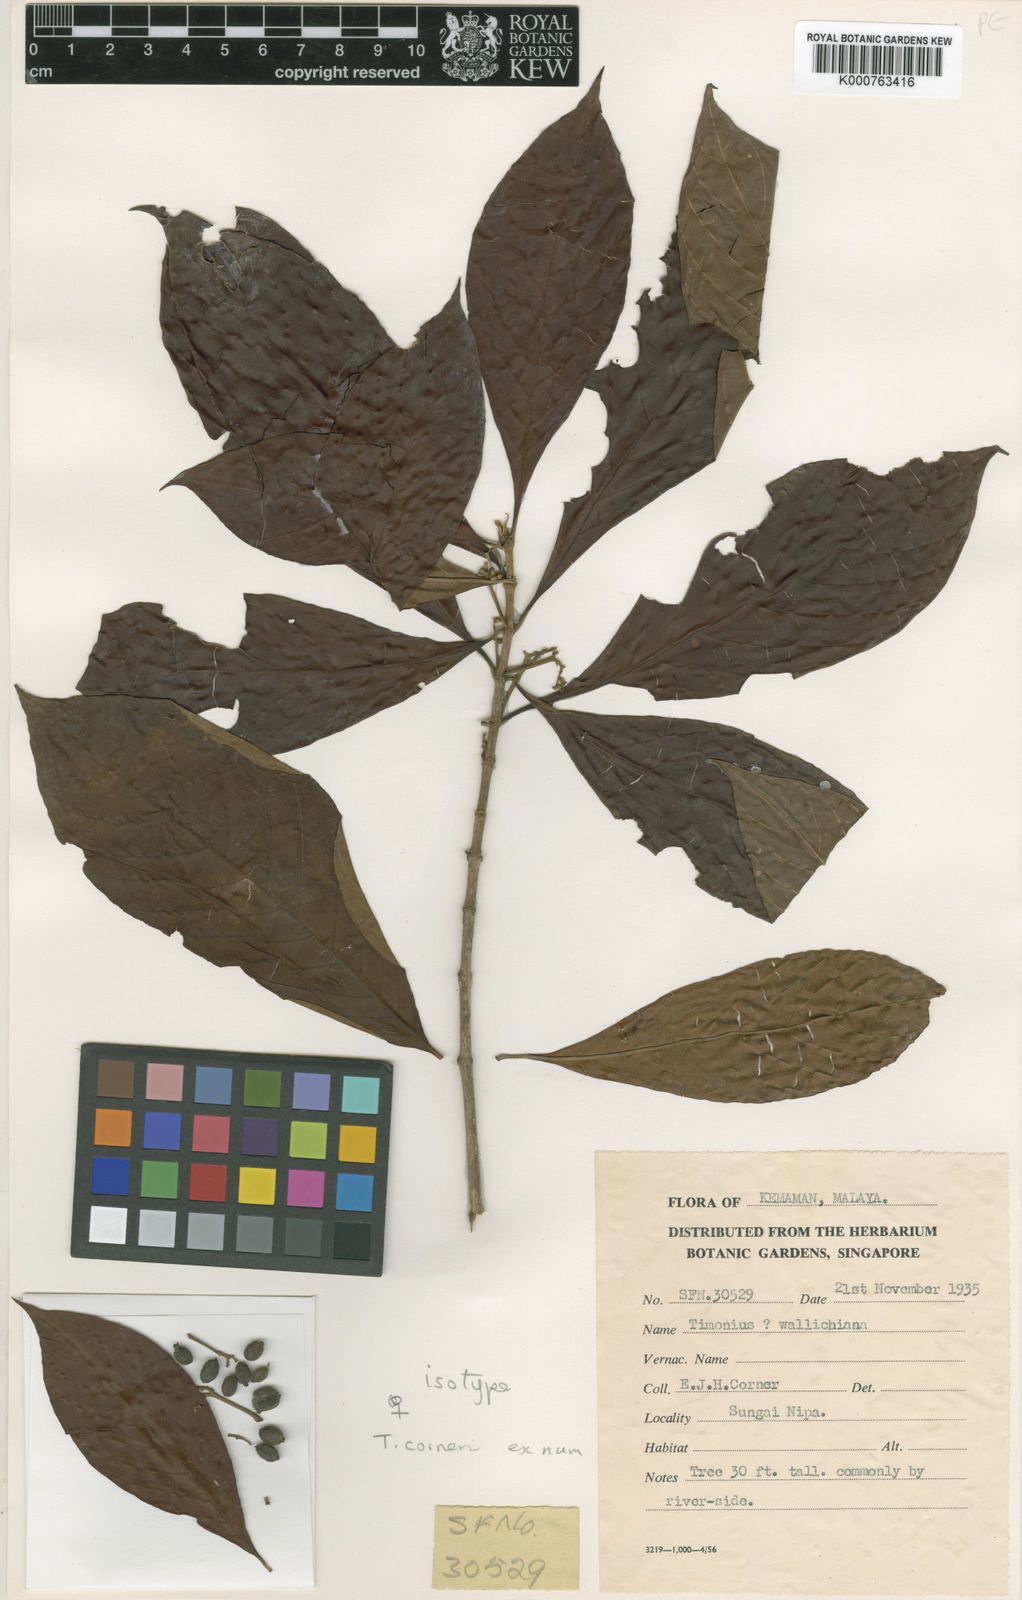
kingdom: Plantae
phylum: Tracheophyta
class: Magnoliopsida
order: Gentianales
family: Rubiaceae
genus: Timonius
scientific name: Timonius corneri
